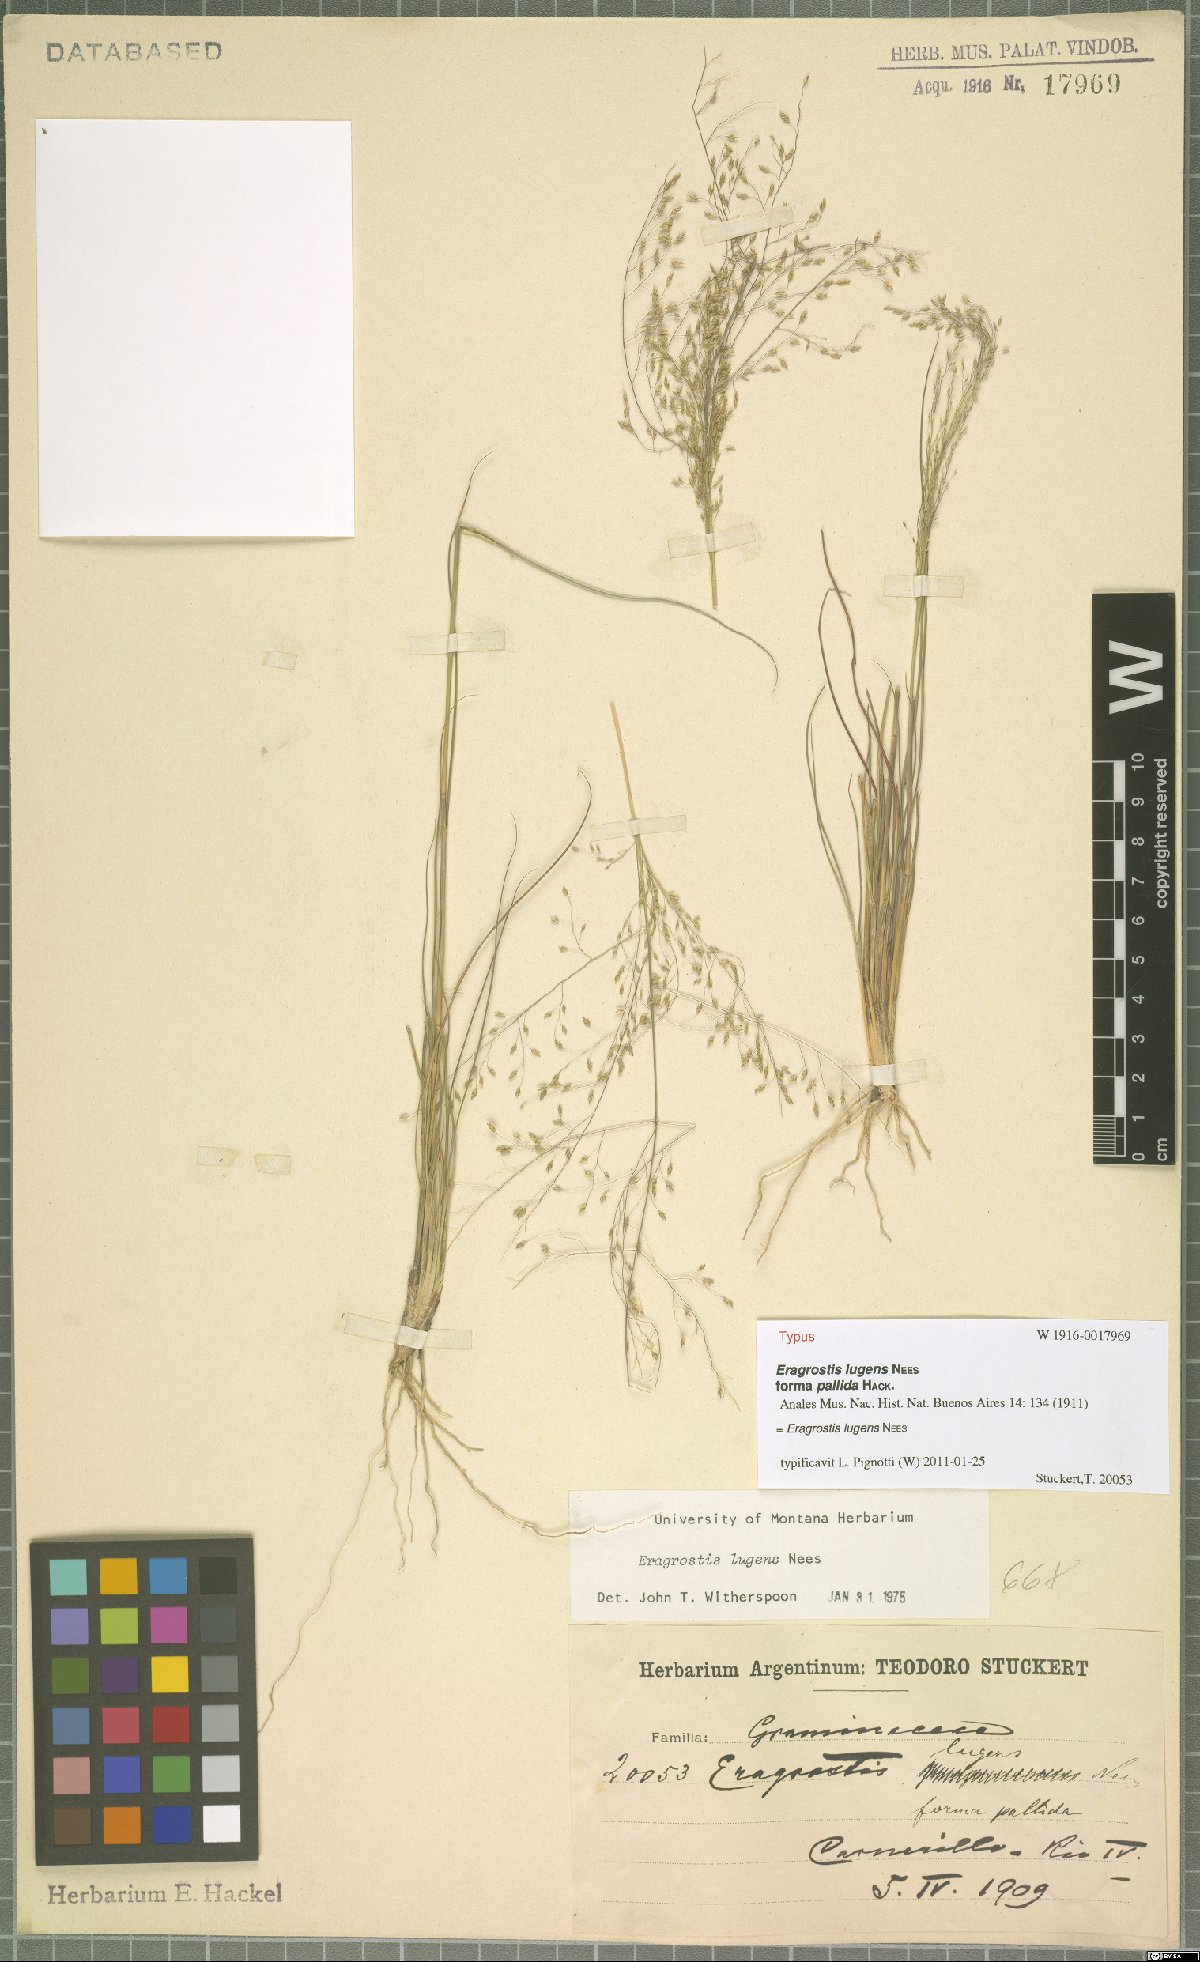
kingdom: Plantae
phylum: Tracheophyta
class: Liliopsida
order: Poales
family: Poaceae
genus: Eragrostis
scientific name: Eragrostis lugens
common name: Mourning love grass
